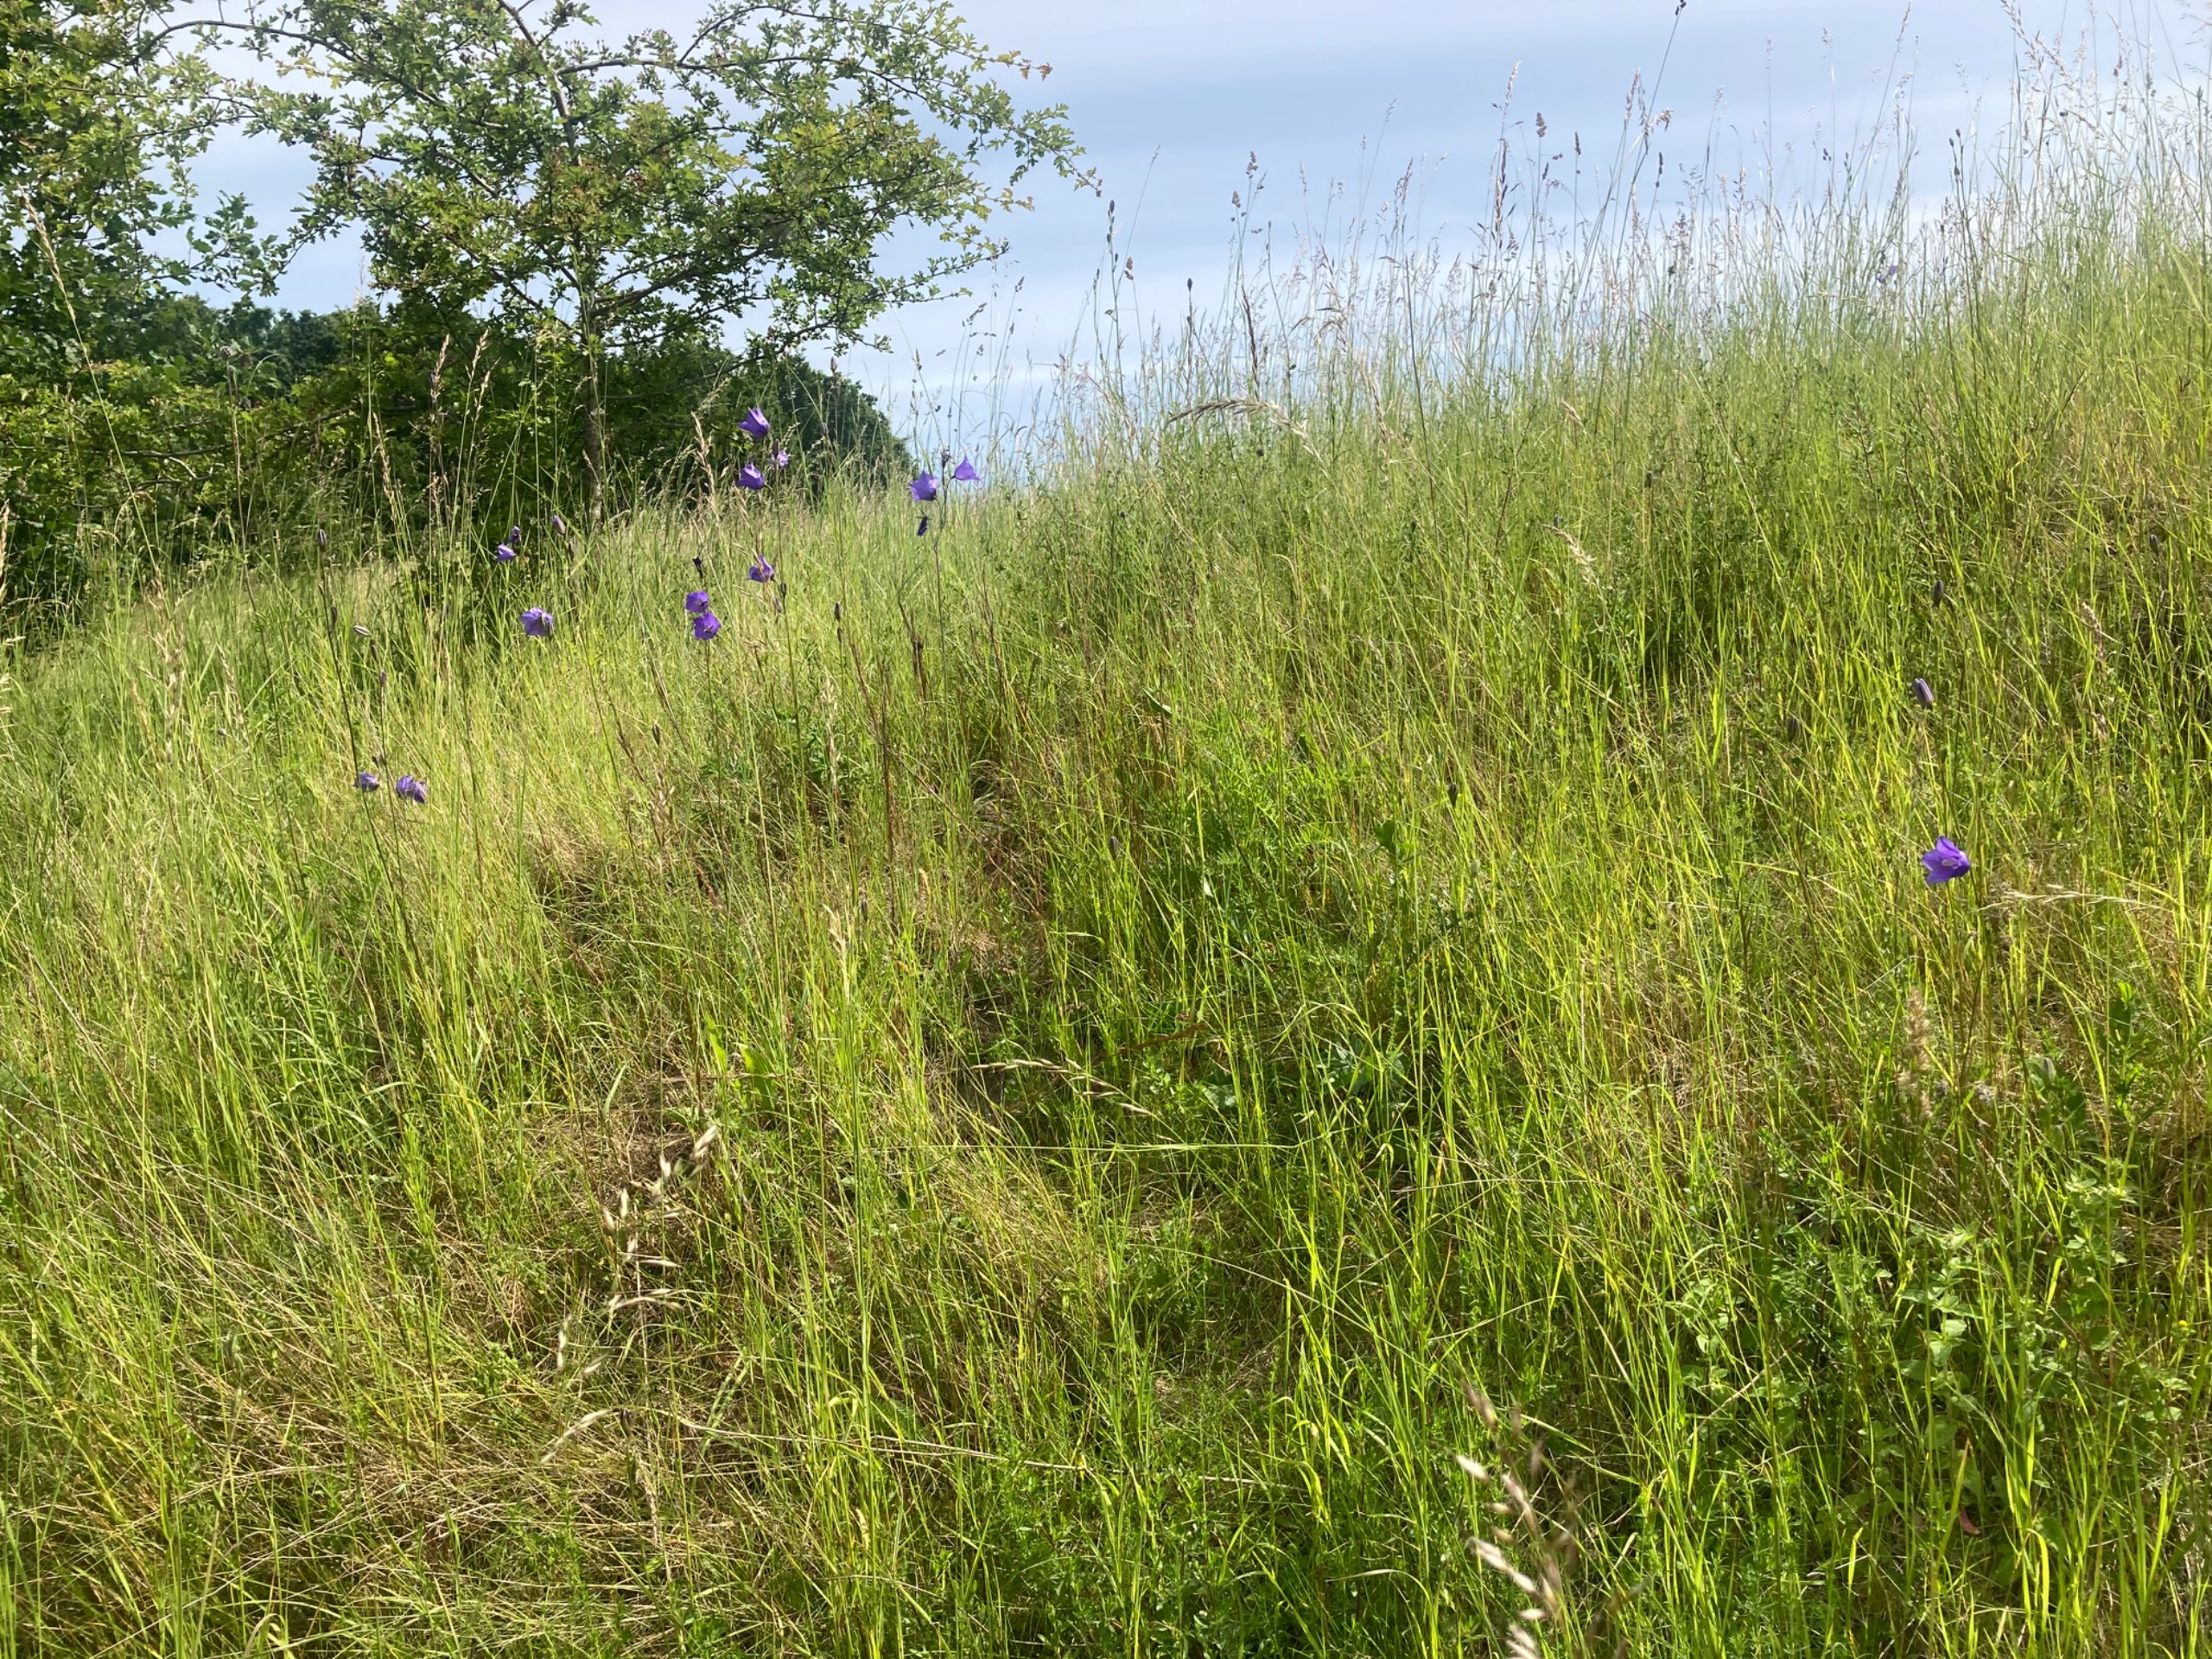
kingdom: Plantae
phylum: Tracheophyta
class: Magnoliopsida
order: Asterales
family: Campanulaceae
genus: Campanula
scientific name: Campanula persicifolia
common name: Smalbladet klokke
